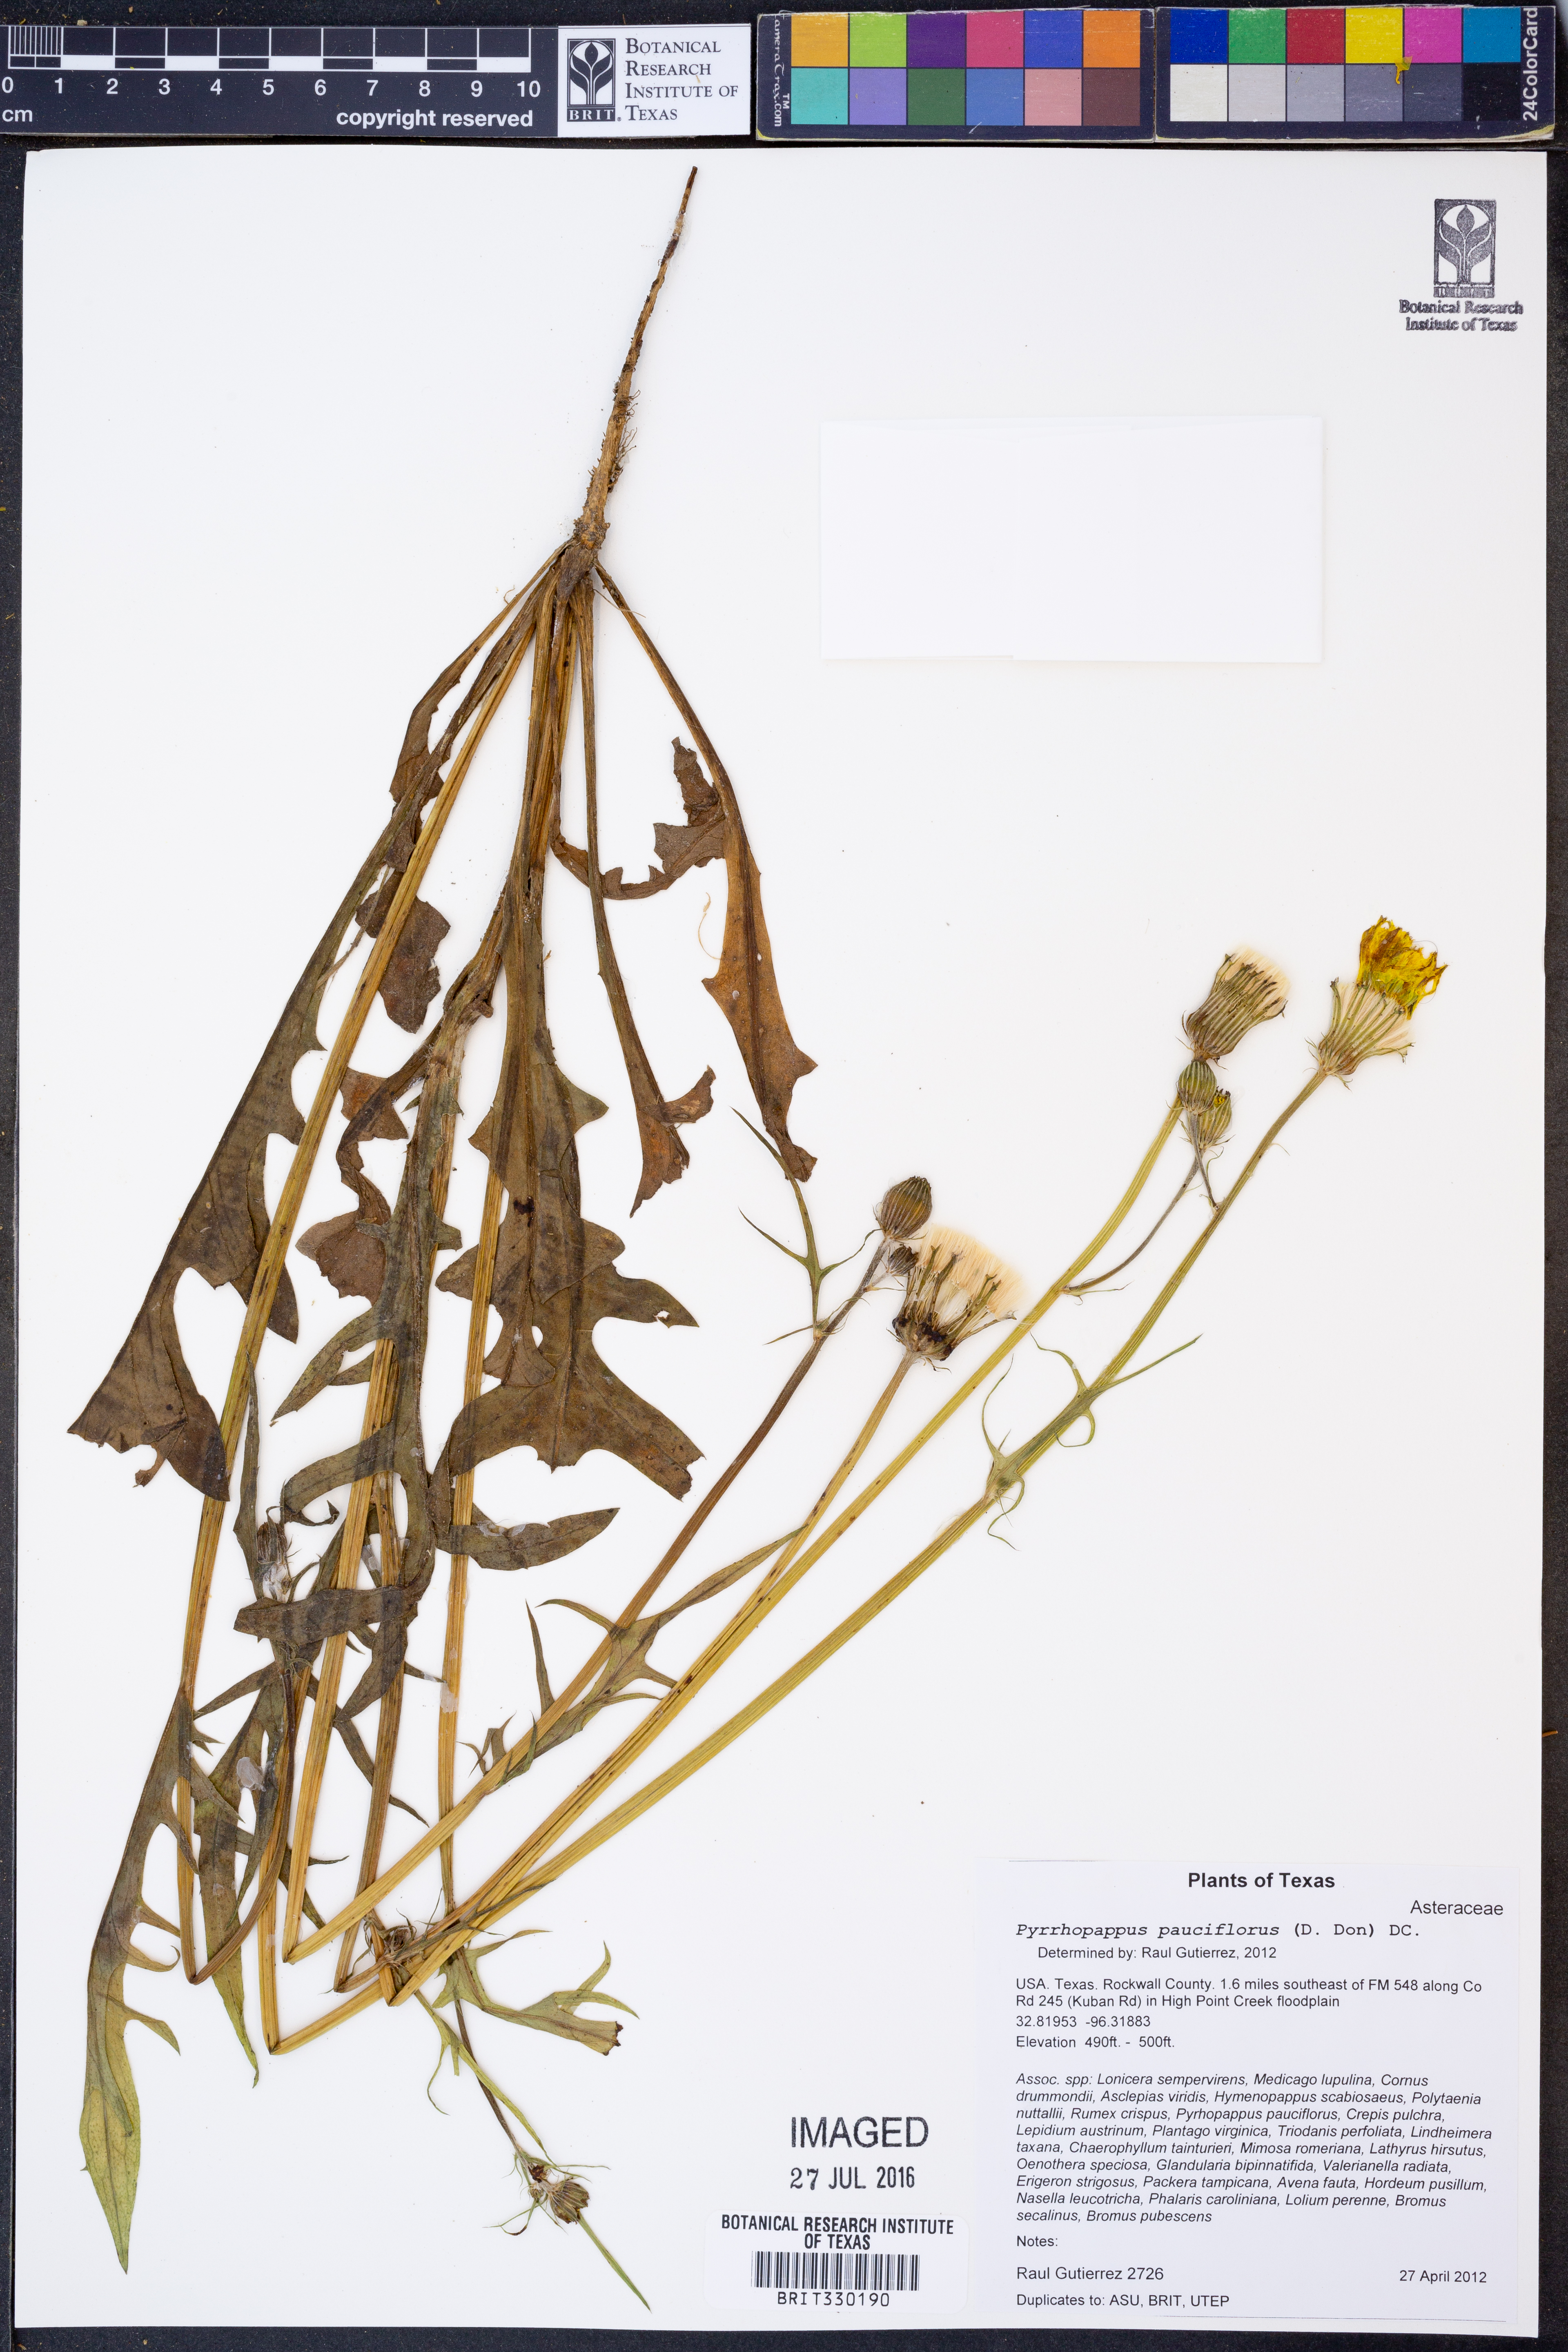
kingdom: Plantae
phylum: Tracheophyta
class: Magnoliopsida
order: Asterales
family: Asteraceae
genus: Pyrrhopappus
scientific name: Pyrrhopappus pauciflorus
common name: Texas false dandelion
